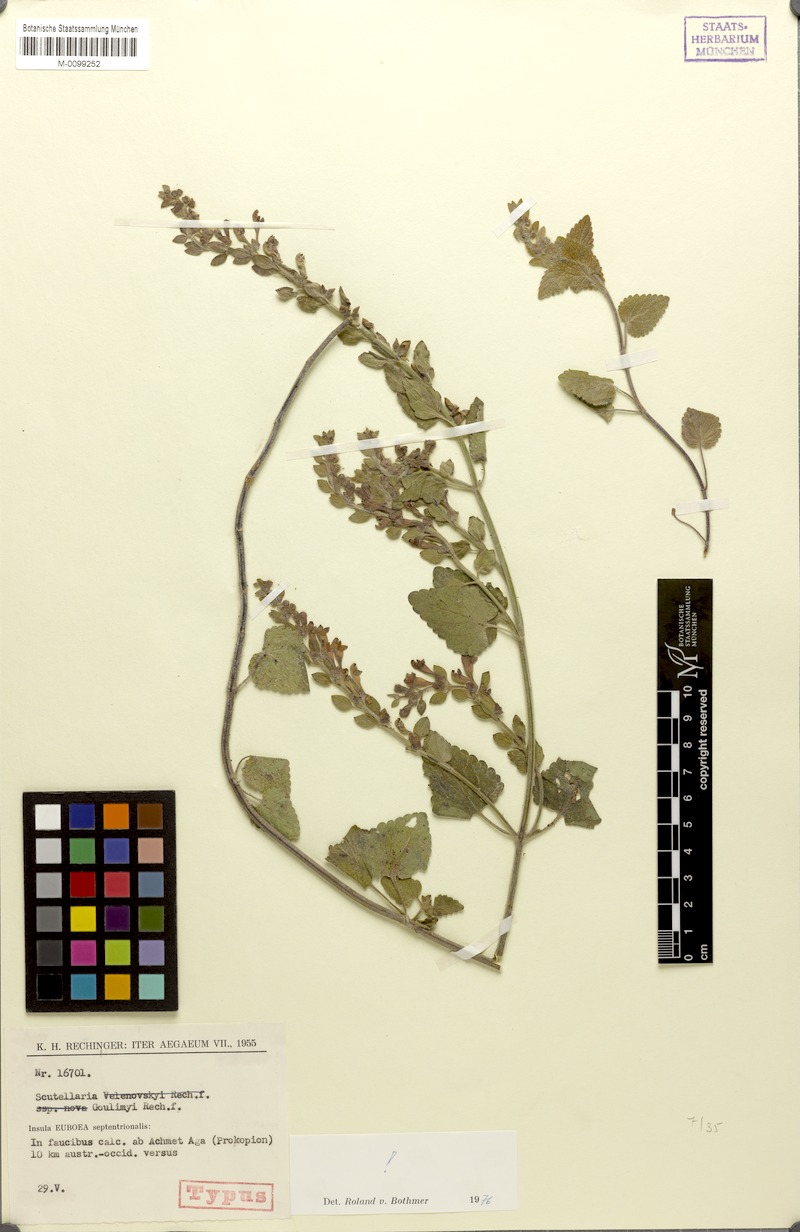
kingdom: Plantae
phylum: Tracheophyta
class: Magnoliopsida
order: Lamiales
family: Lamiaceae
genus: Scutellaria
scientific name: Scutellaria albida
